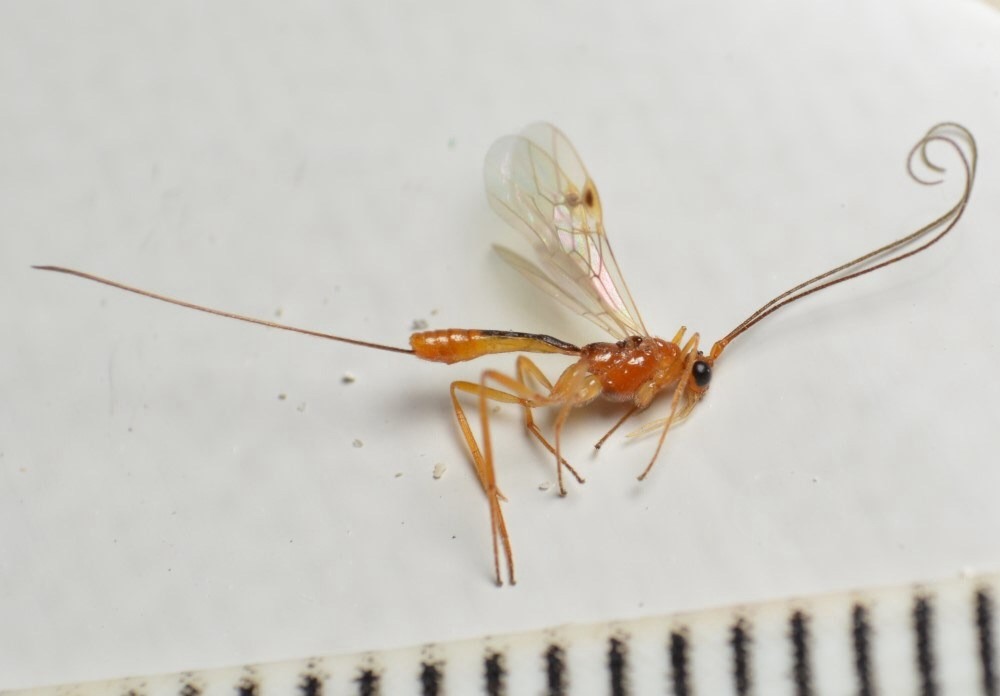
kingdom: Animalia
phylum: Arthropoda
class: Insecta
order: Hymenoptera
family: Braconidae
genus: Macrocentrus
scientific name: Macrocentrus linearis
